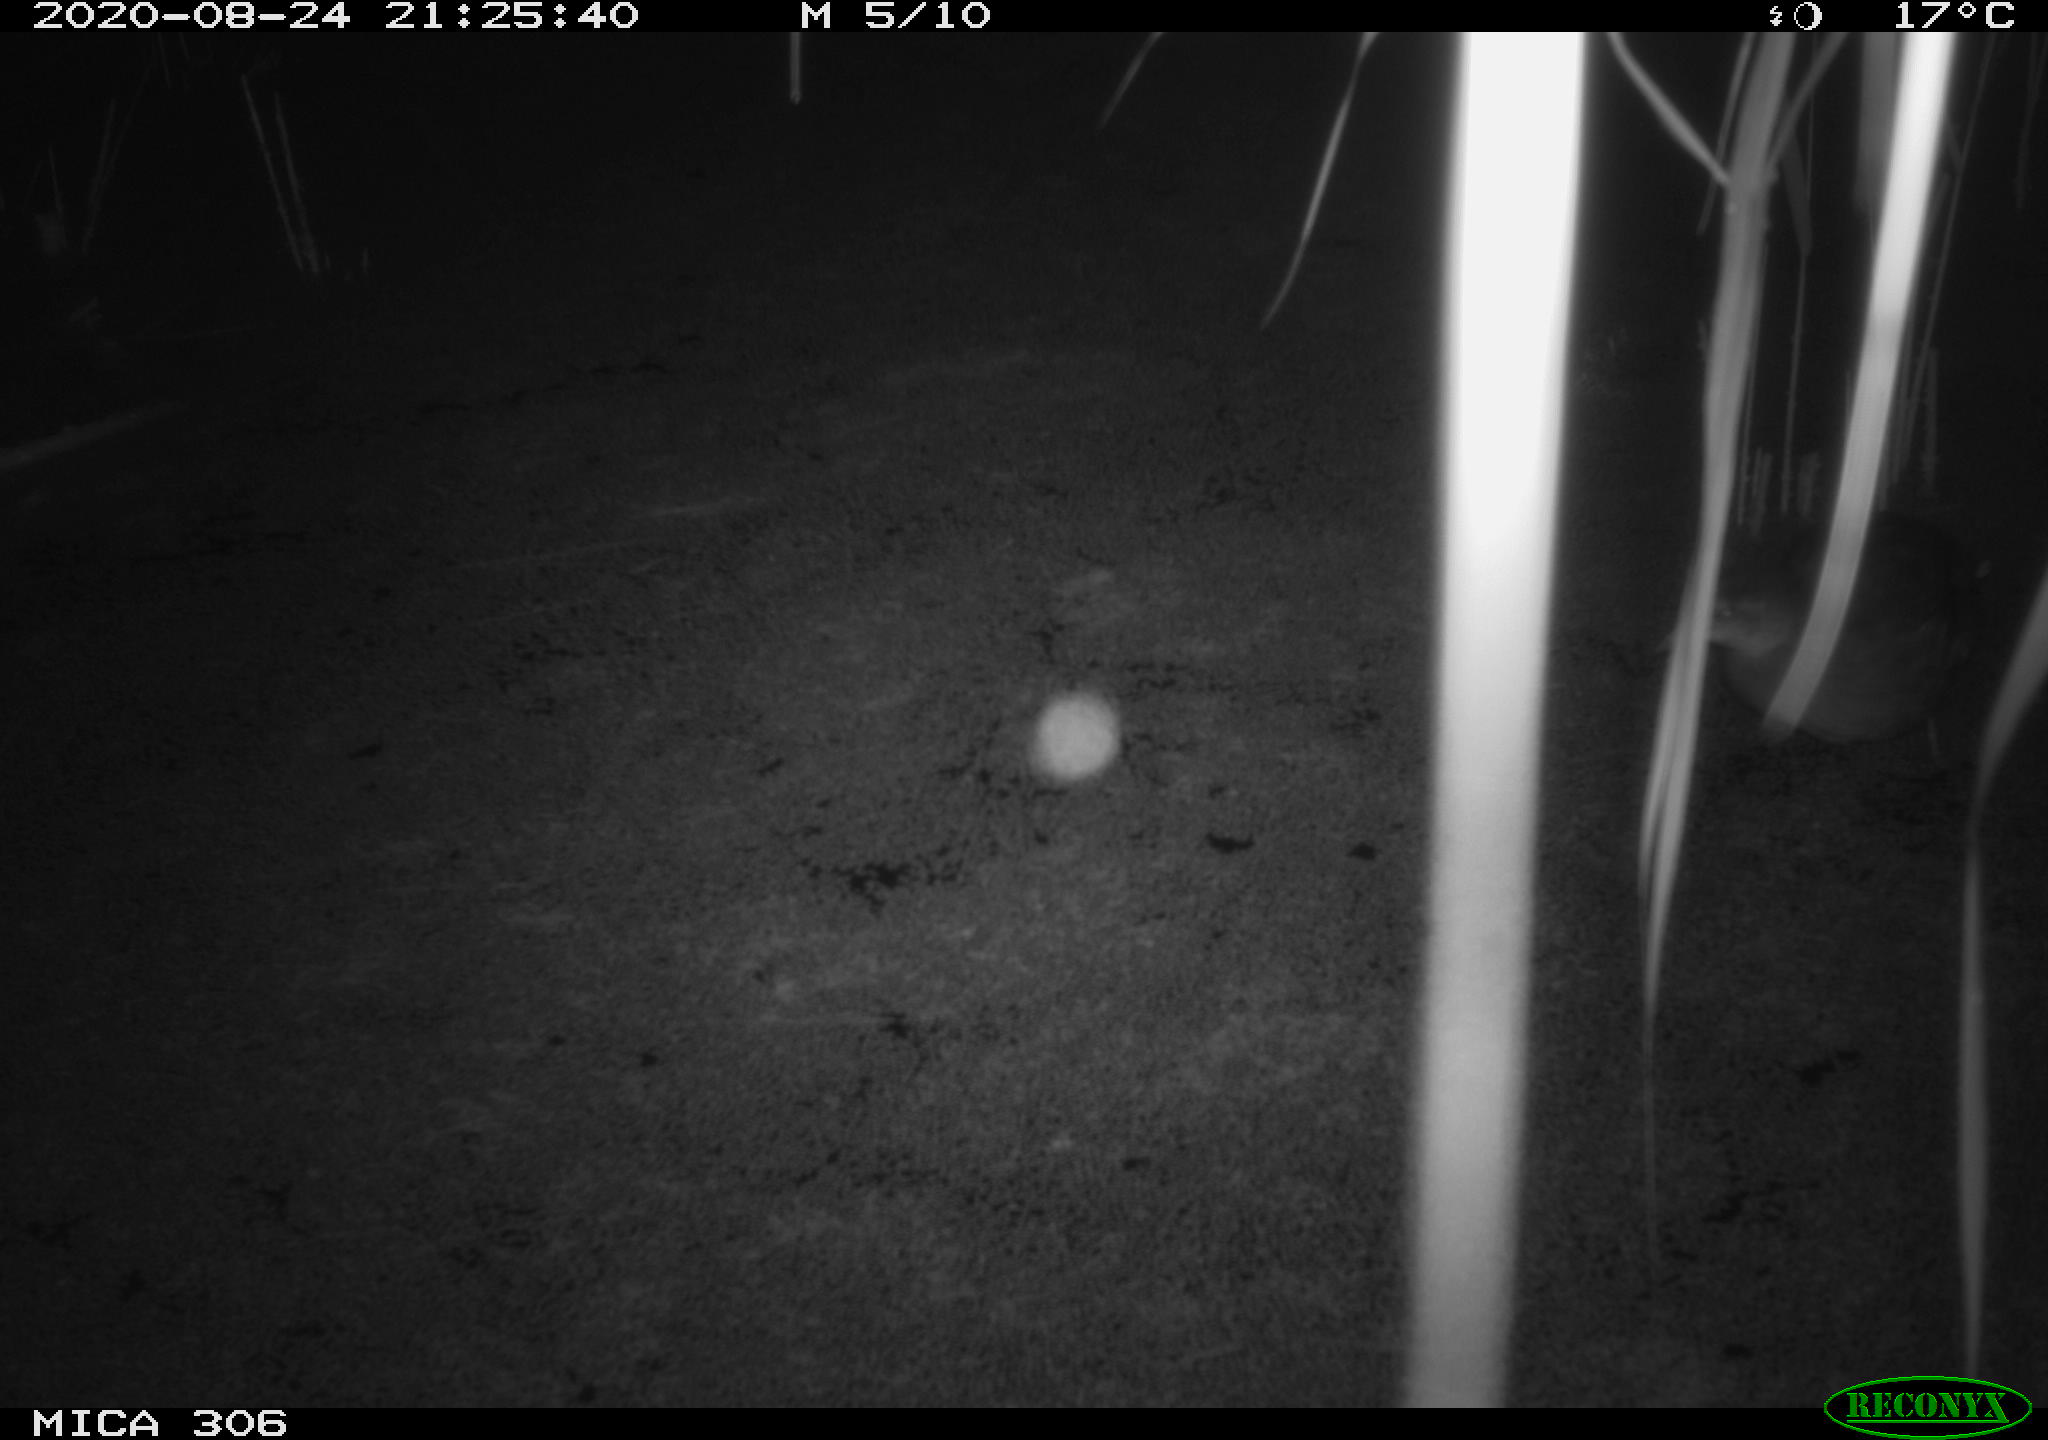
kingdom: Animalia
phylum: Chordata
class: Aves
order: Gruiformes
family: Rallidae
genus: Fulica
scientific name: Fulica atra
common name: Eurasian coot
